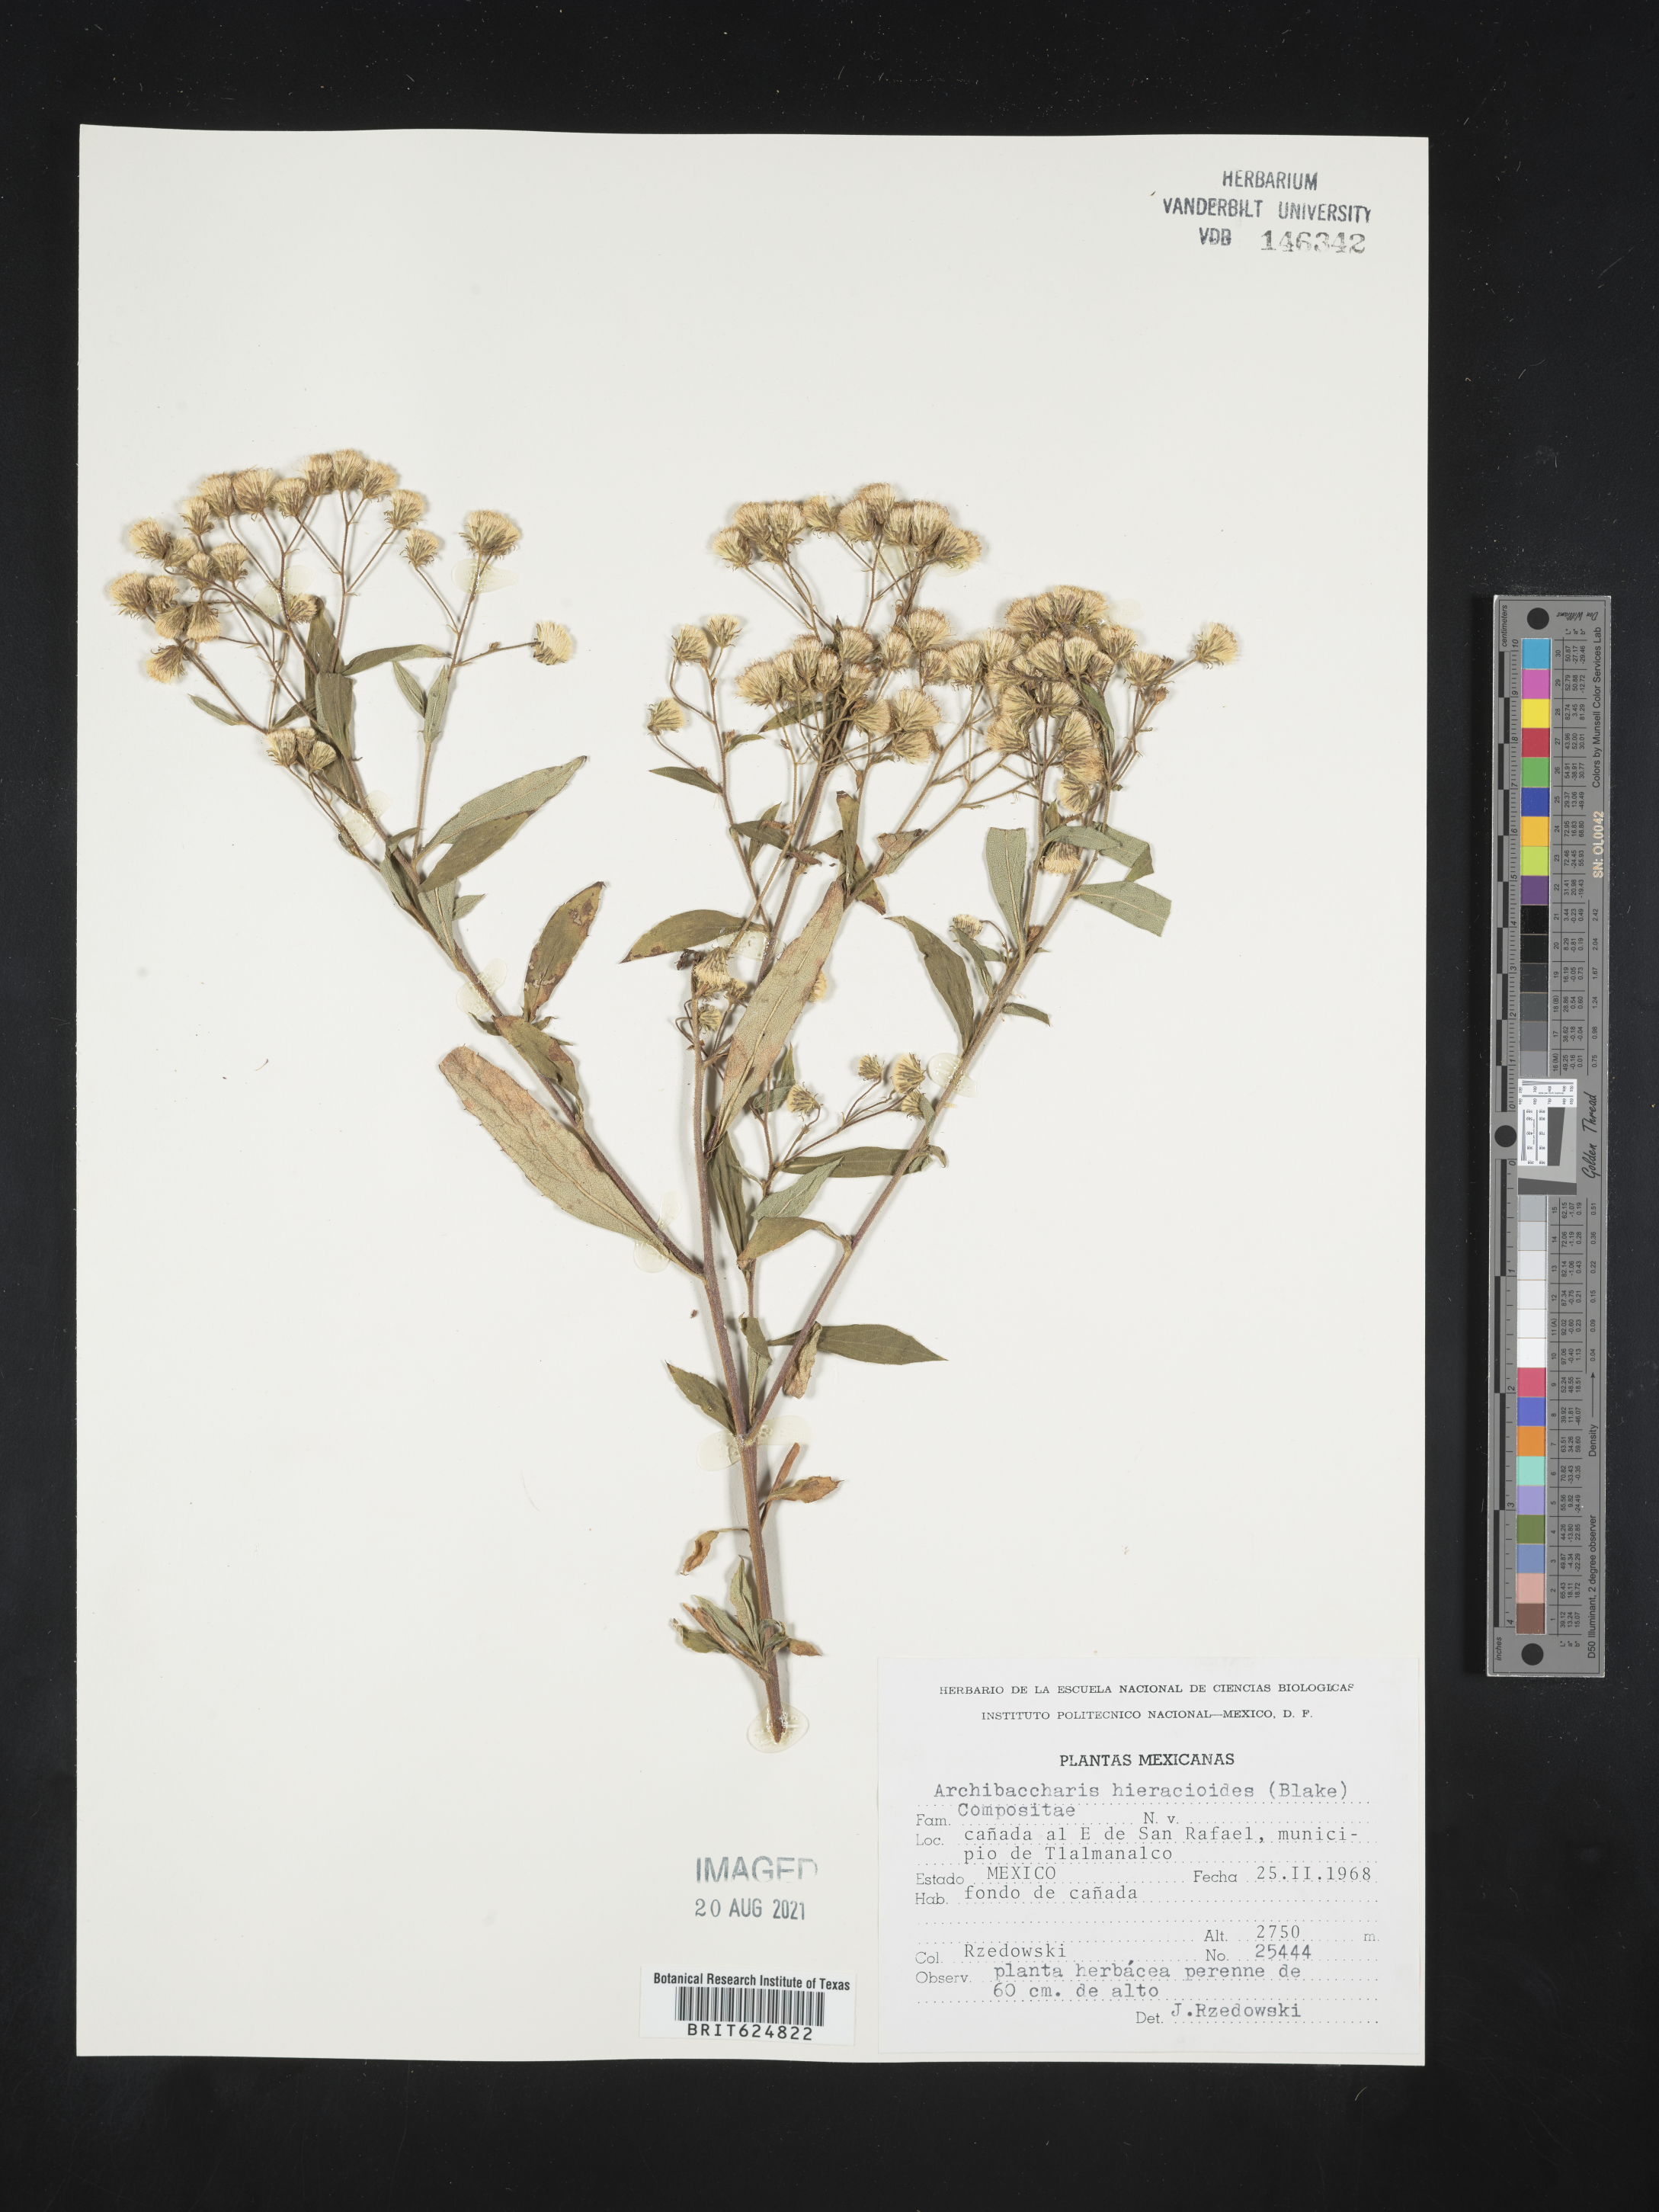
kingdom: Plantae
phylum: Tracheophyta
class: Magnoliopsida
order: Asterales
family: Asteraceae
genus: Archibaccharis
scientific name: Archibaccharis
